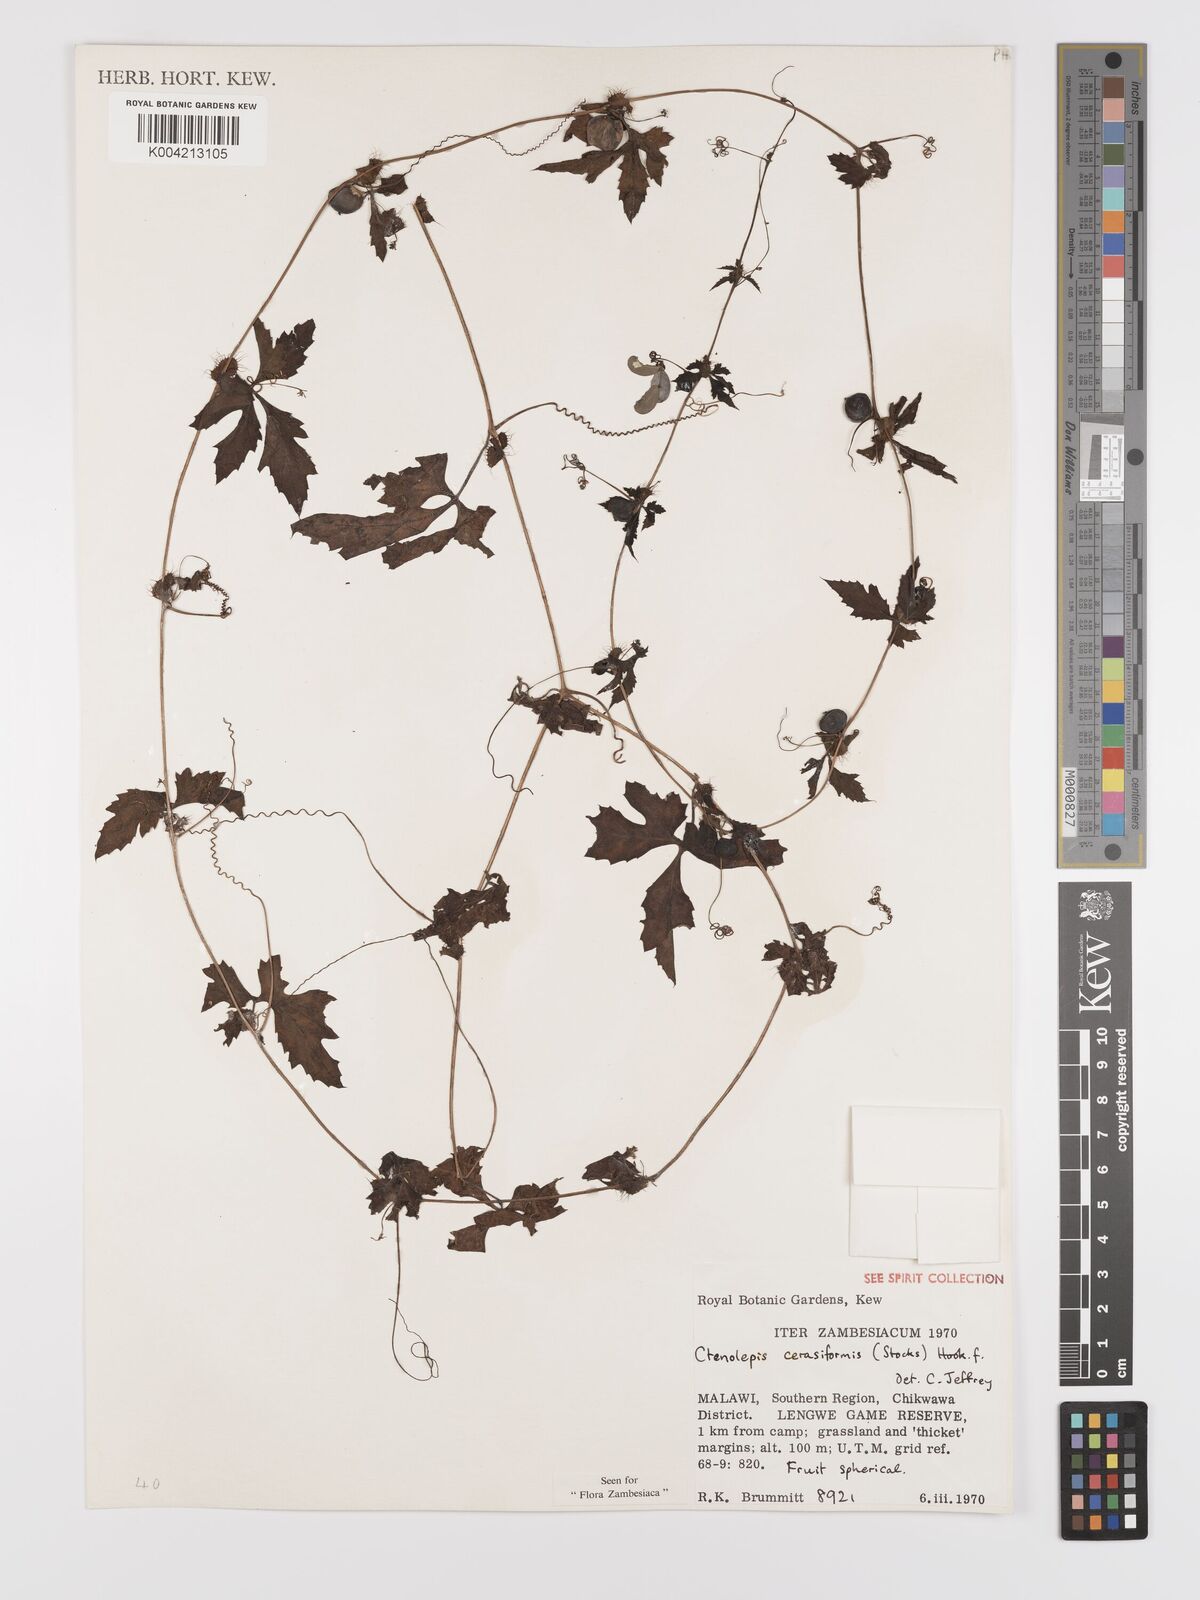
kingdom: Plantae
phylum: Tracheophyta
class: Magnoliopsida
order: Cucurbitales
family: Cucurbitaceae
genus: Blastania
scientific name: Blastania cerasiformis
